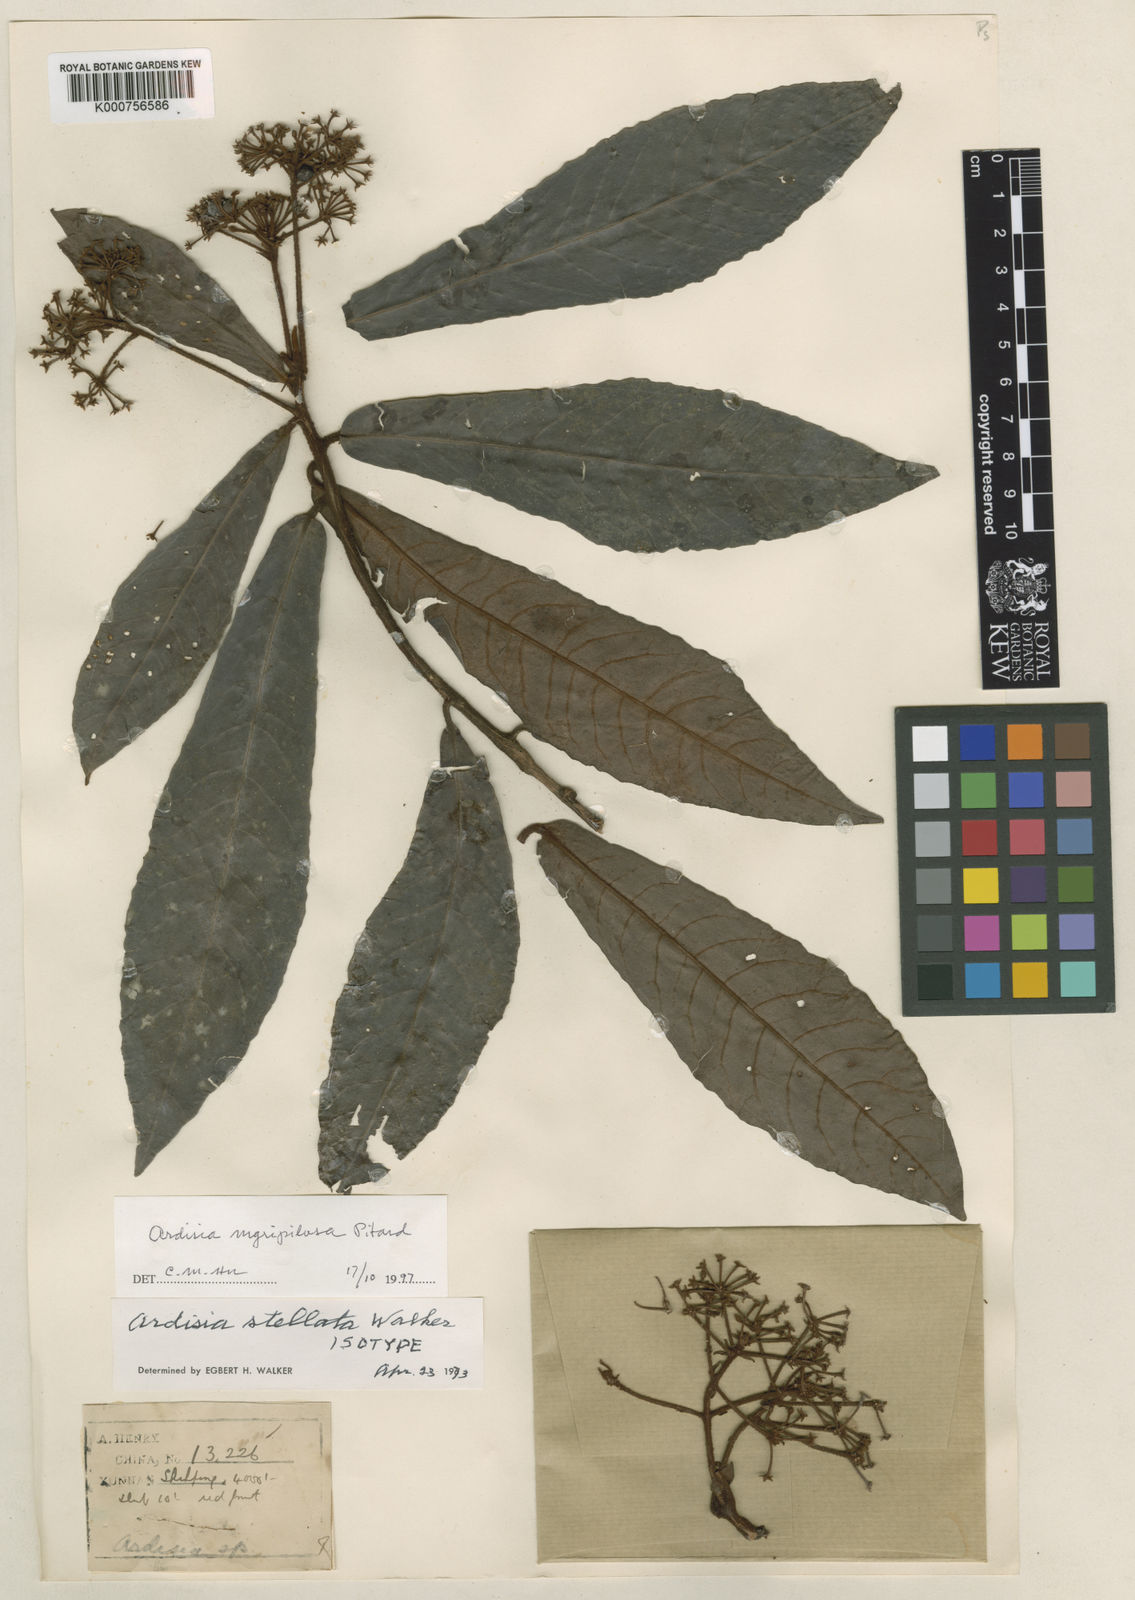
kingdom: Plantae
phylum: Tracheophyta
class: Magnoliopsida
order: Ericales
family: Primulaceae
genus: Ardisia
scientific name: Ardisia nigropilosa
